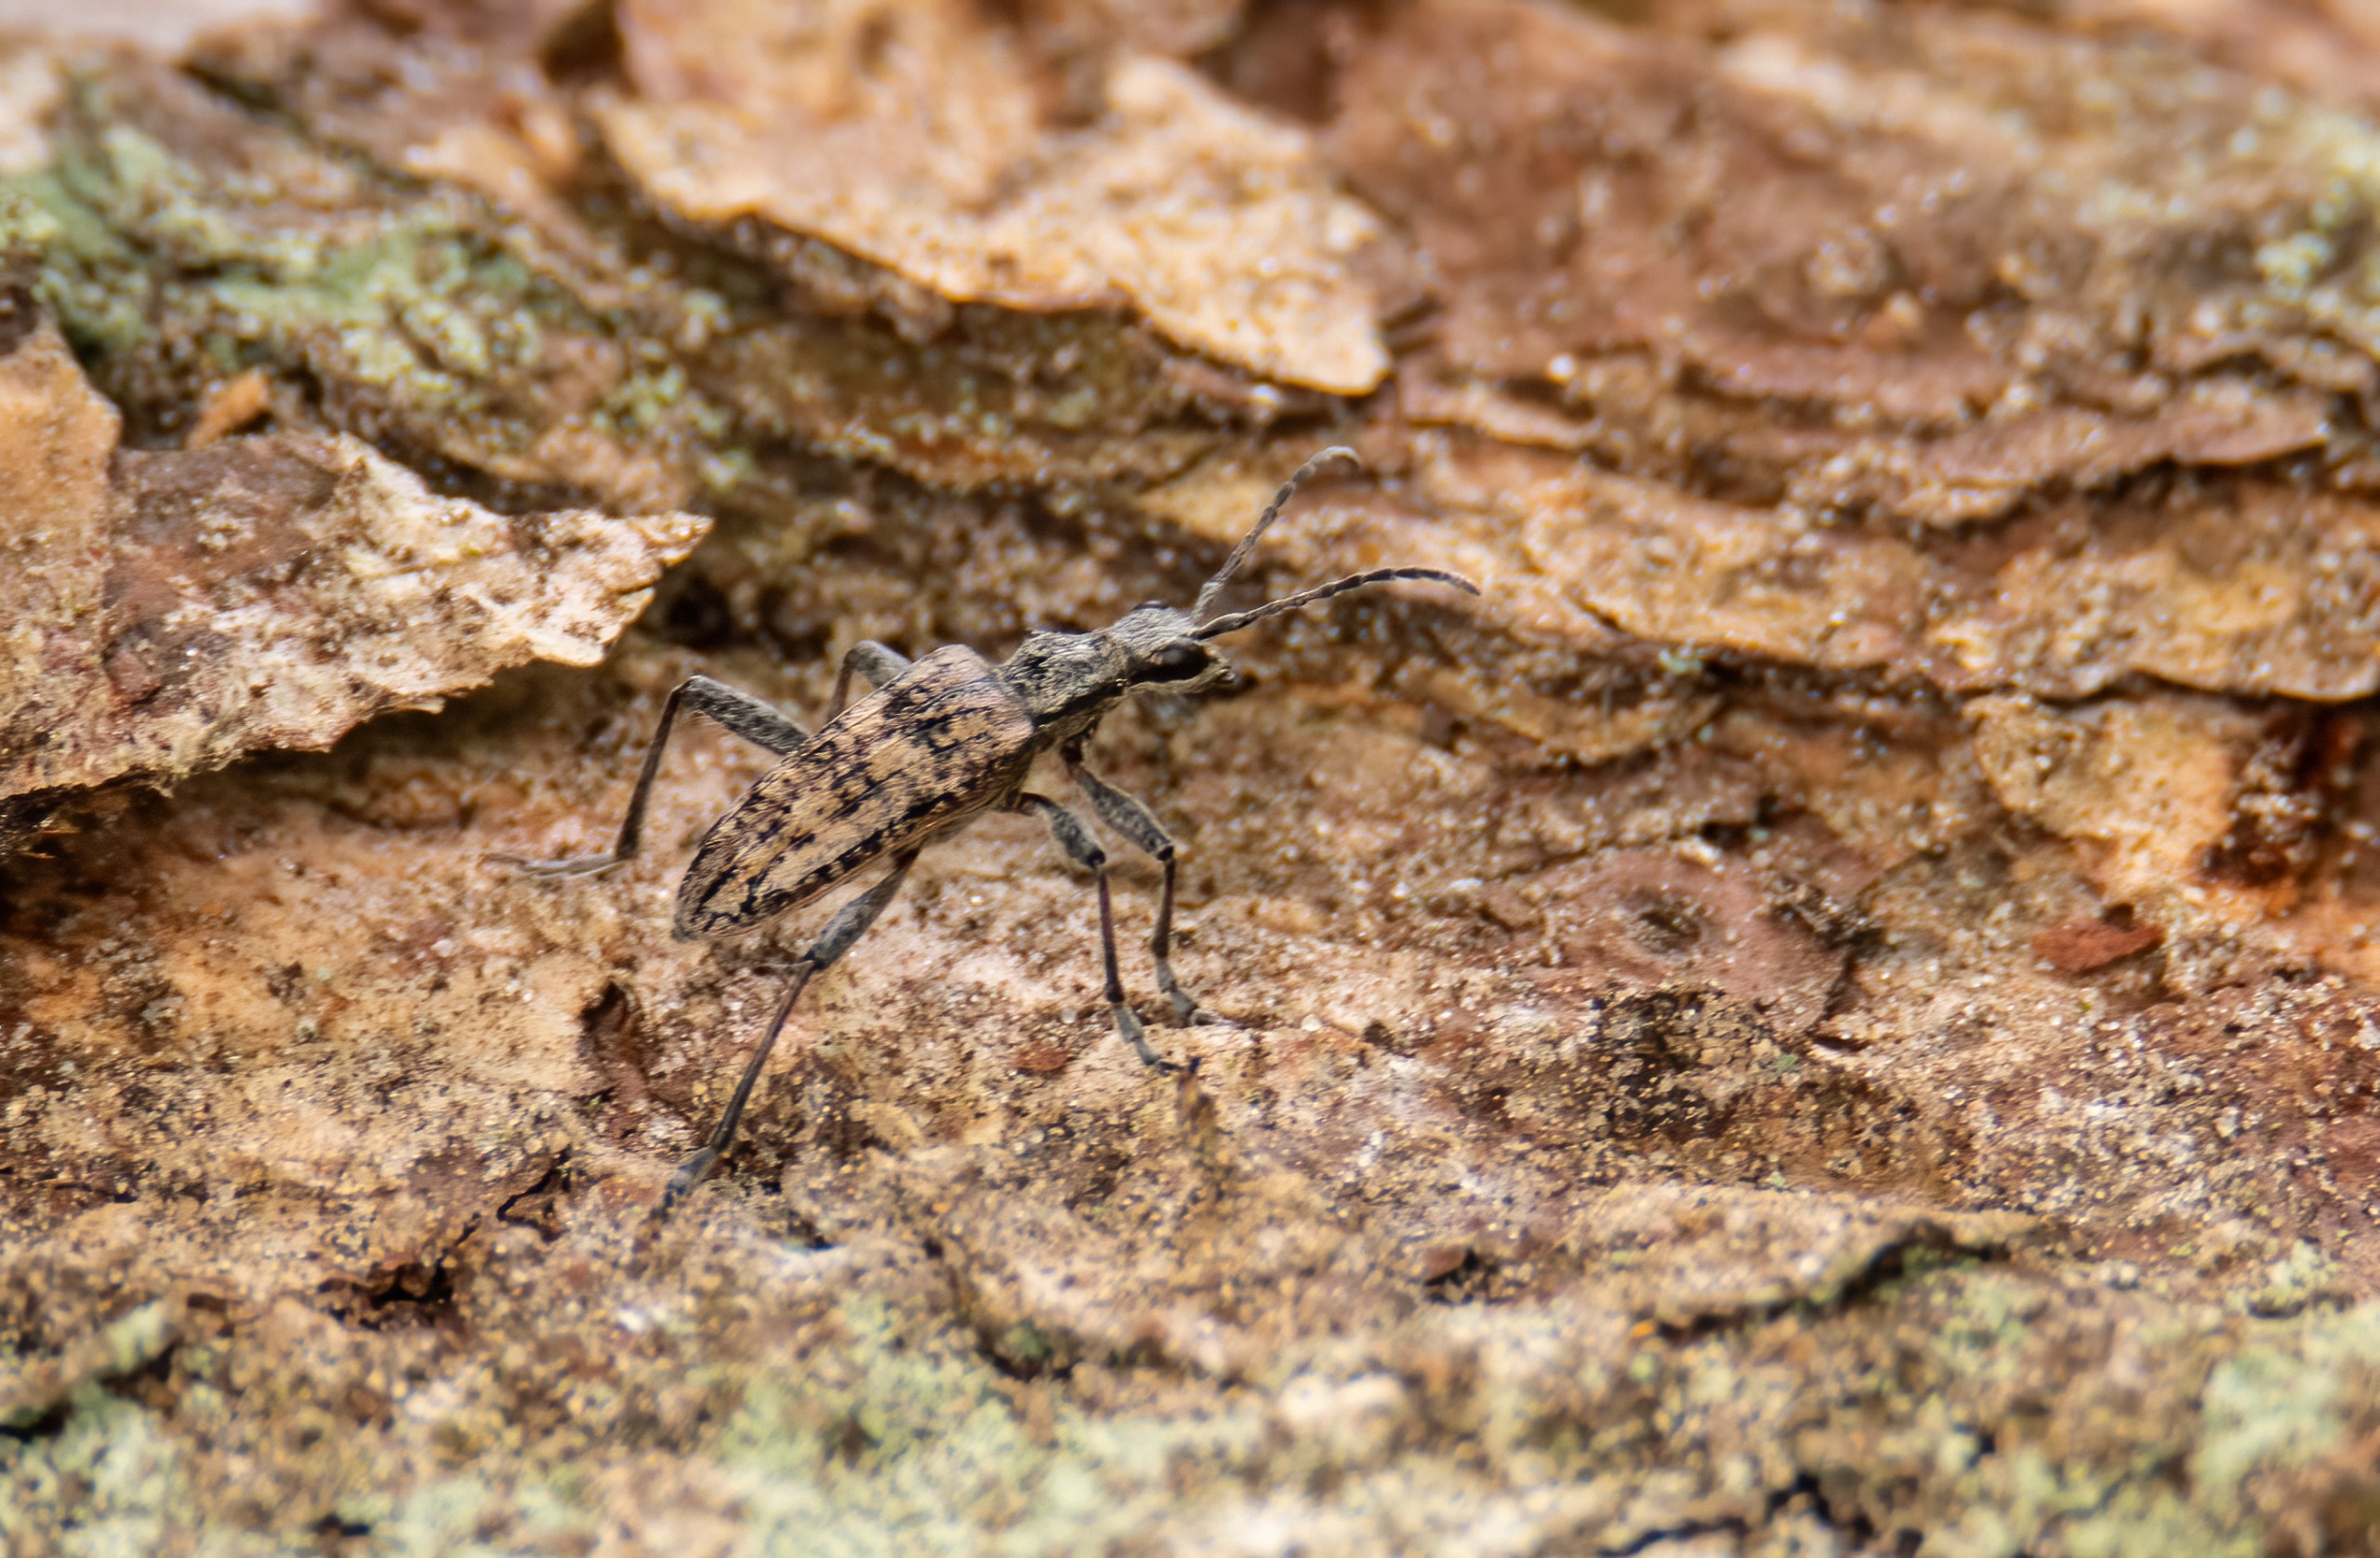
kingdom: Animalia
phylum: Arthropoda
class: Insecta
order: Coleoptera
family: Cerambycidae
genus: Rhagium
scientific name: Rhagium inquisitor
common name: Fyrretandbuk
